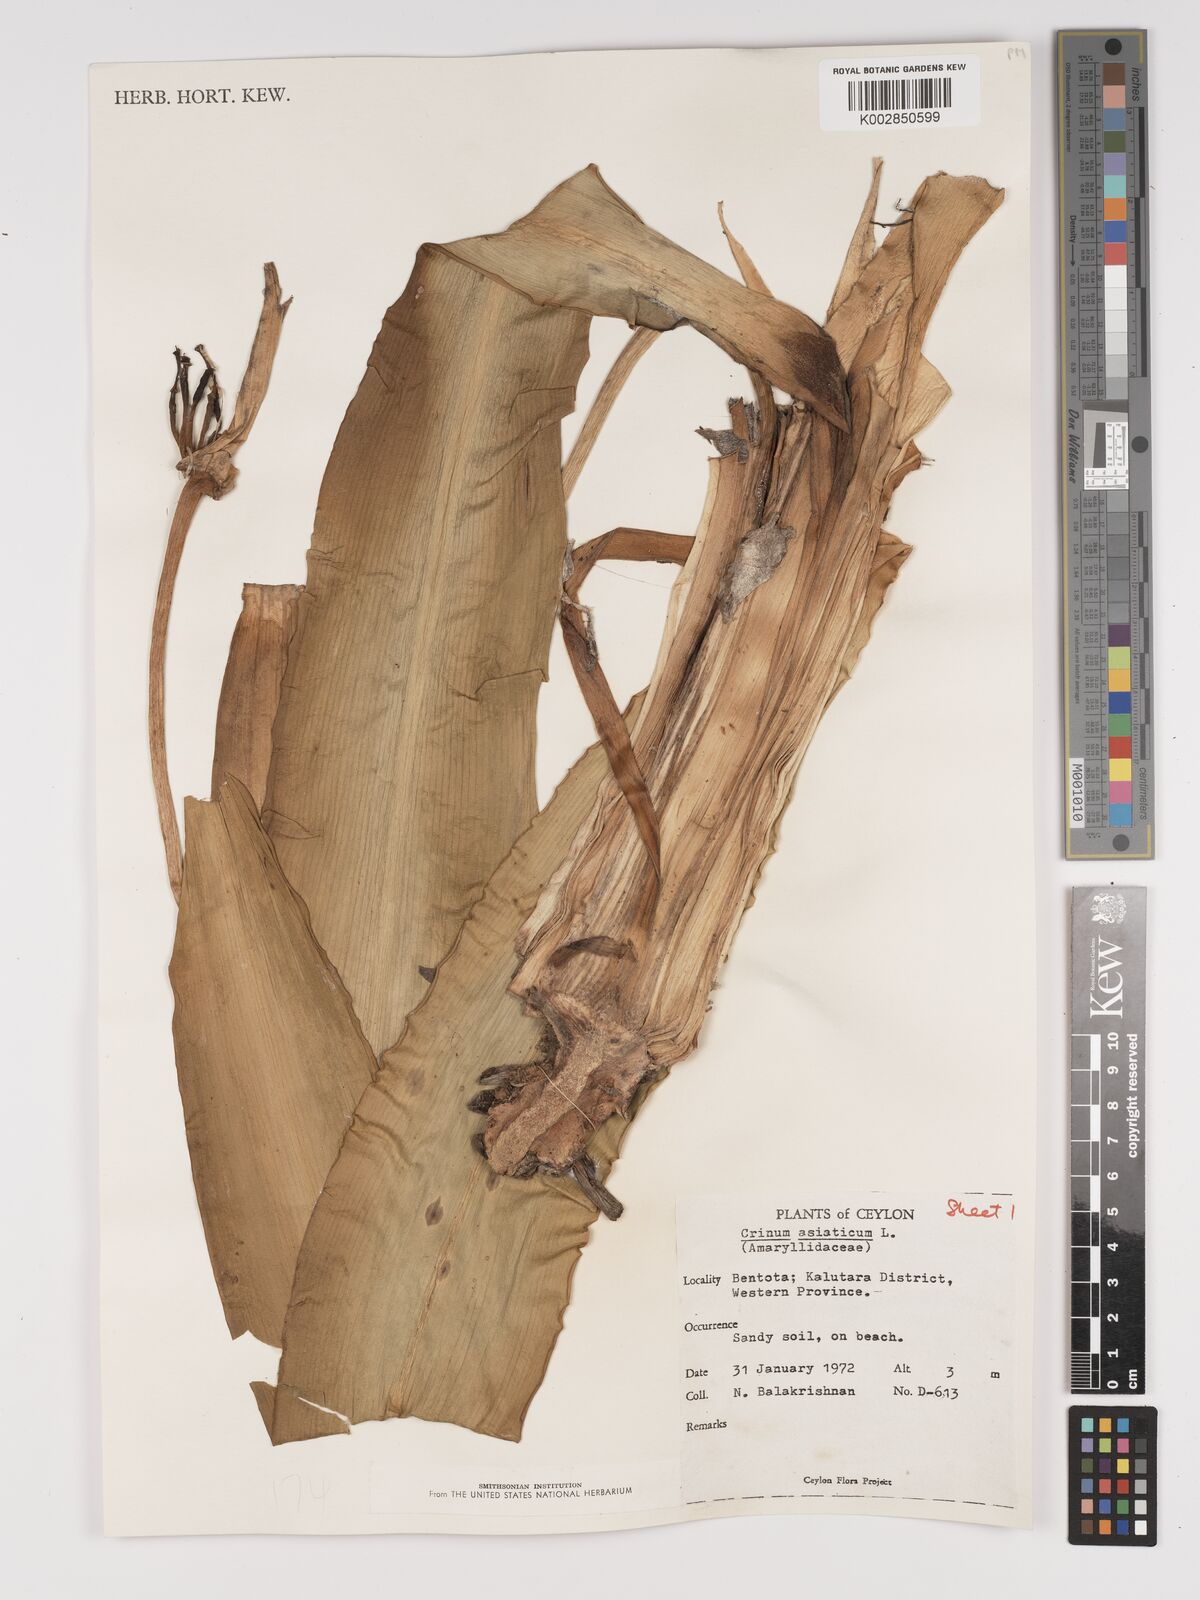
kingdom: Plantae
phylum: Tracheophyta
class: Liliopsida
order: Asparagales
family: Amaryllidaceae
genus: Crinum
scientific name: Crinum asiaticum
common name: Poisonbulb
